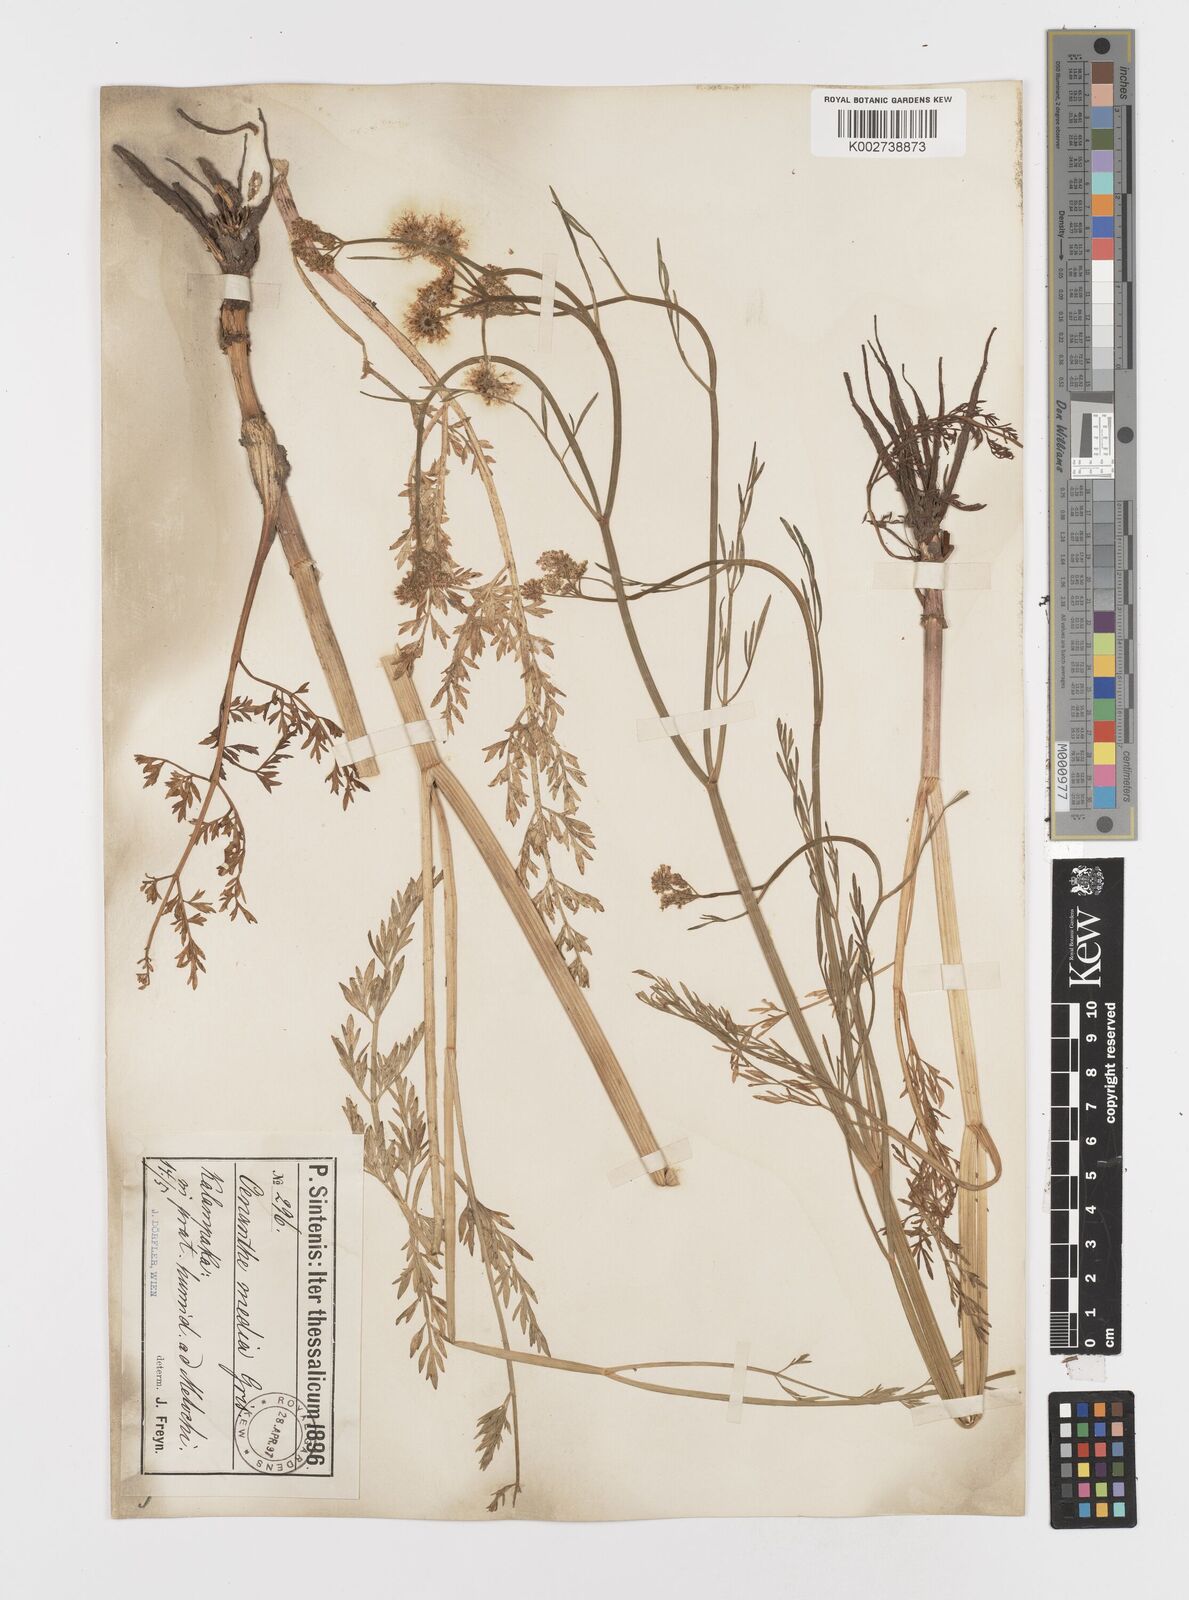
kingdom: Plantae
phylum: Tracheophyta
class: Magnoliopsida
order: Apiales
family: Apiaceae
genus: Oenanthe
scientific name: Oenanthe silaifolia
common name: Narrow-leaved water-dropwort
